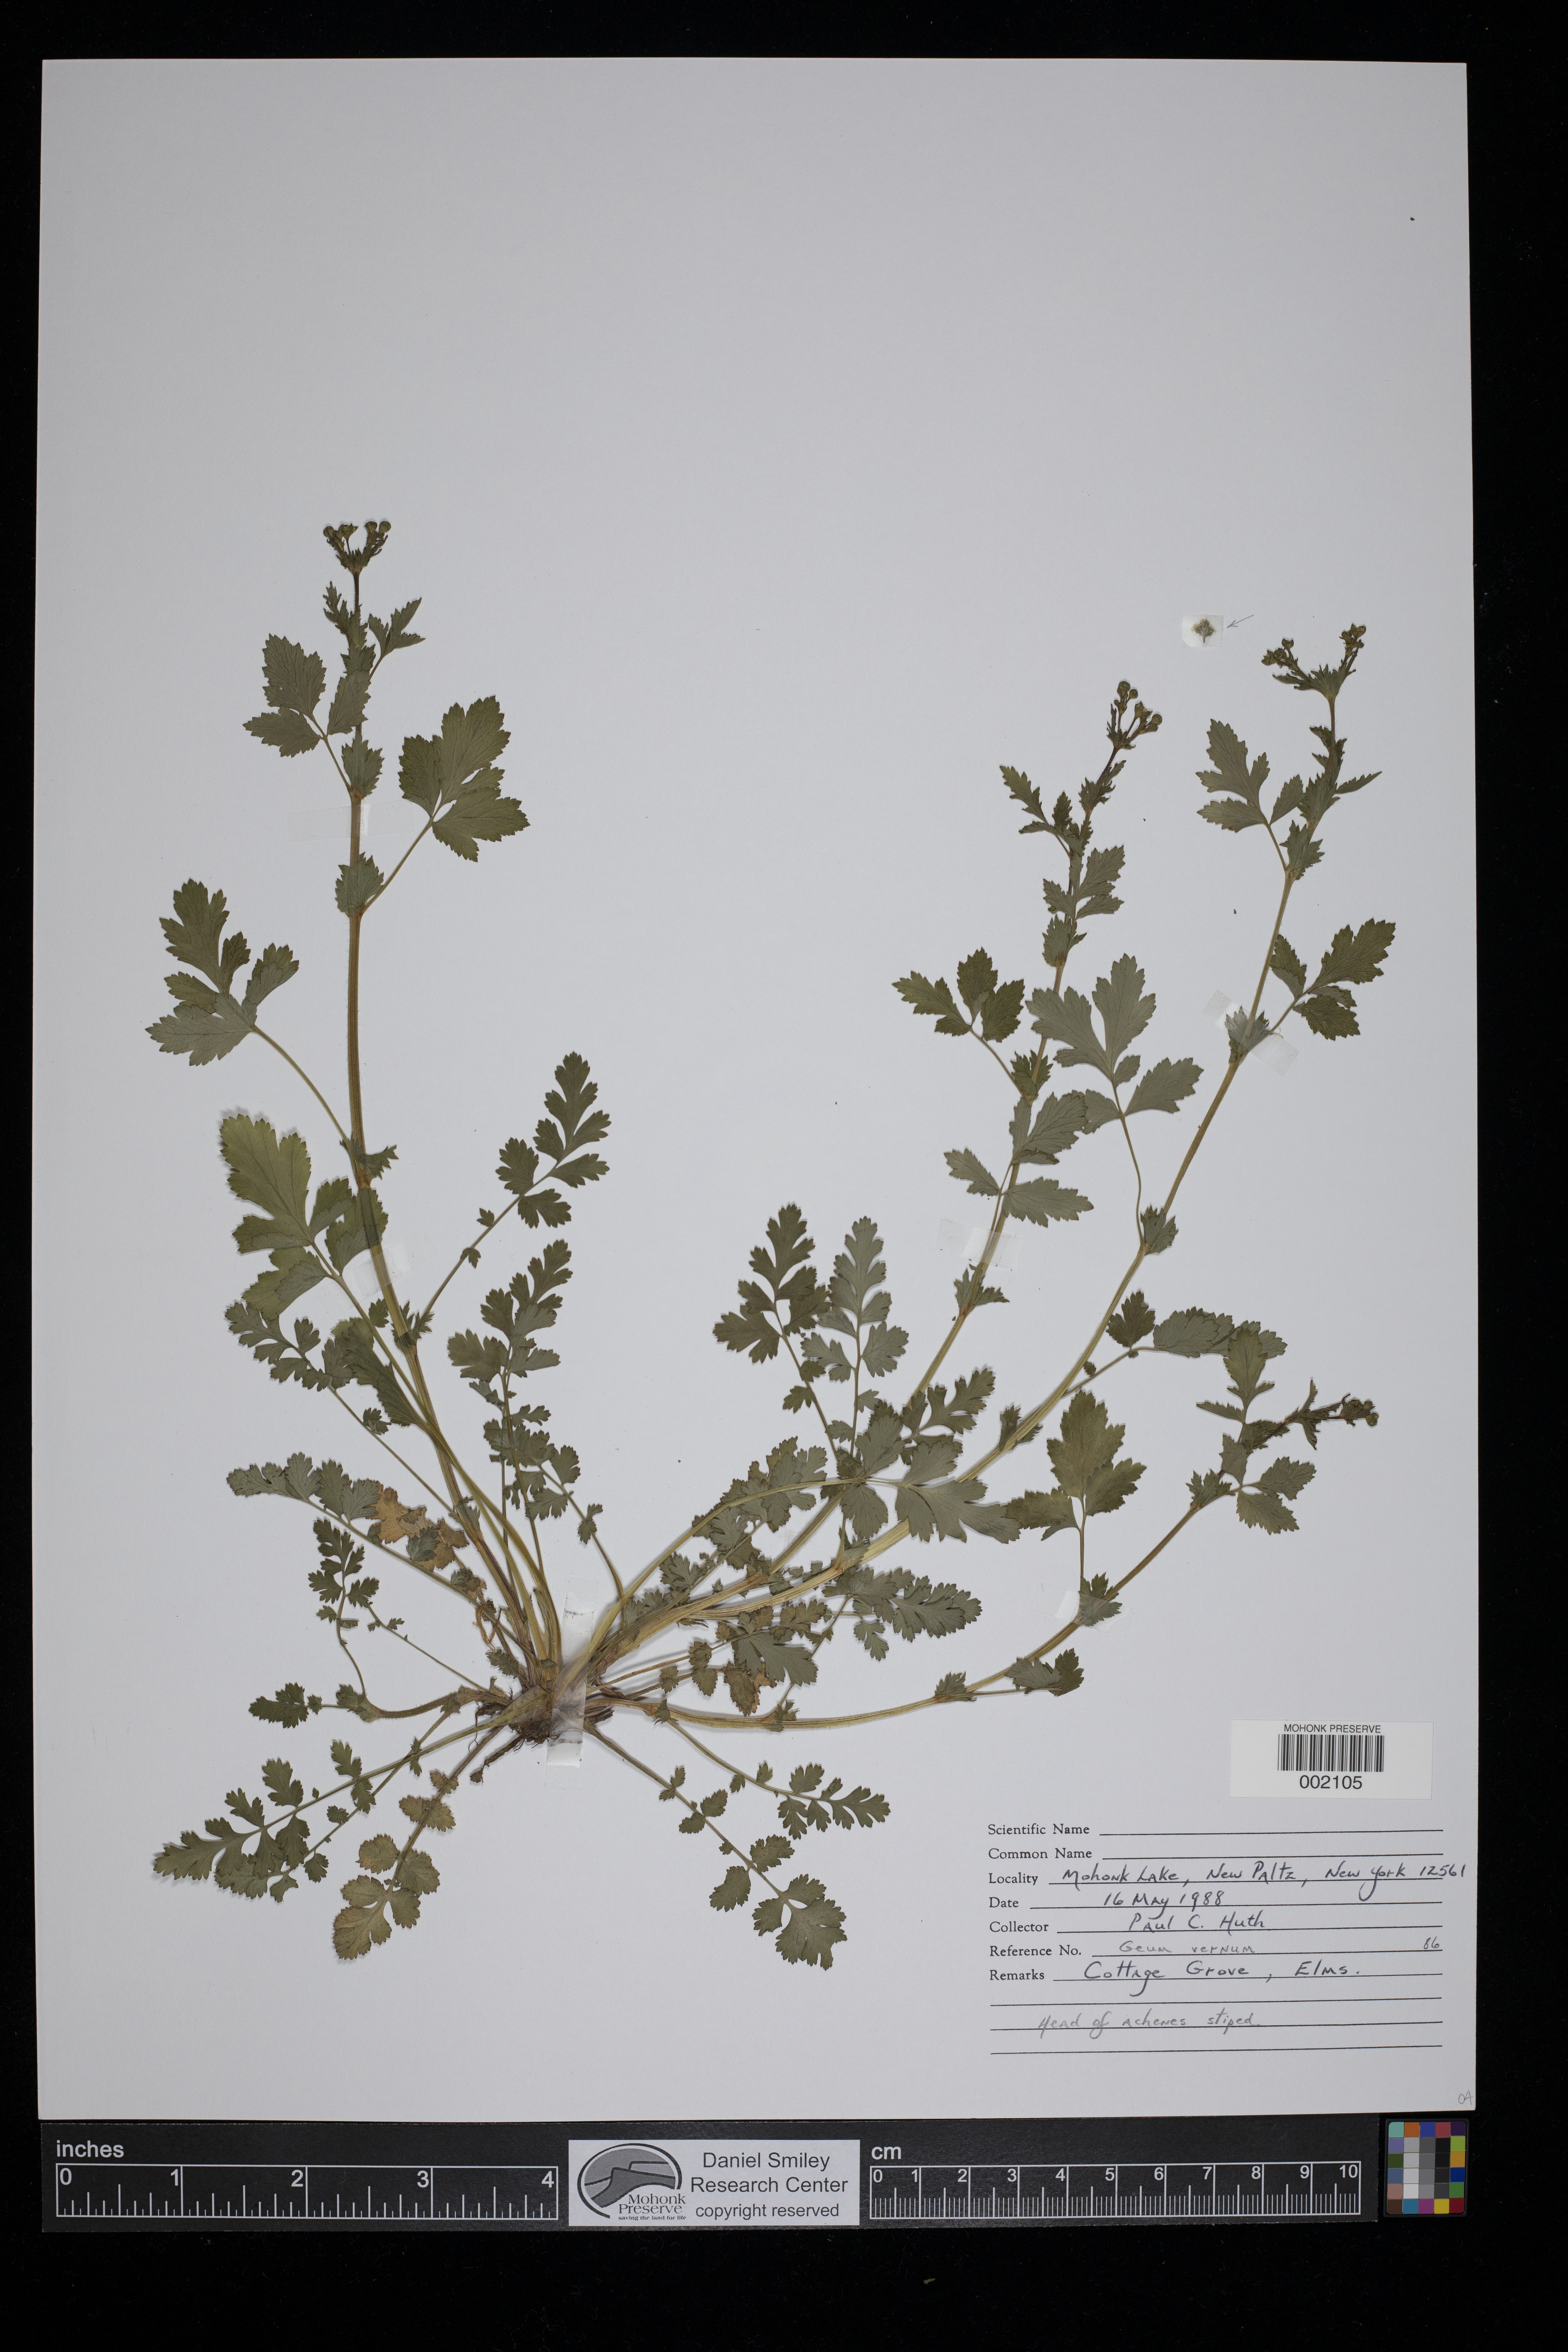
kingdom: Plantae
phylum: Tracheophyta
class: Magnoliopsida
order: Rosales
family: Rosaceae
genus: Geum
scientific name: Geum vernum
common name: Spring avens
